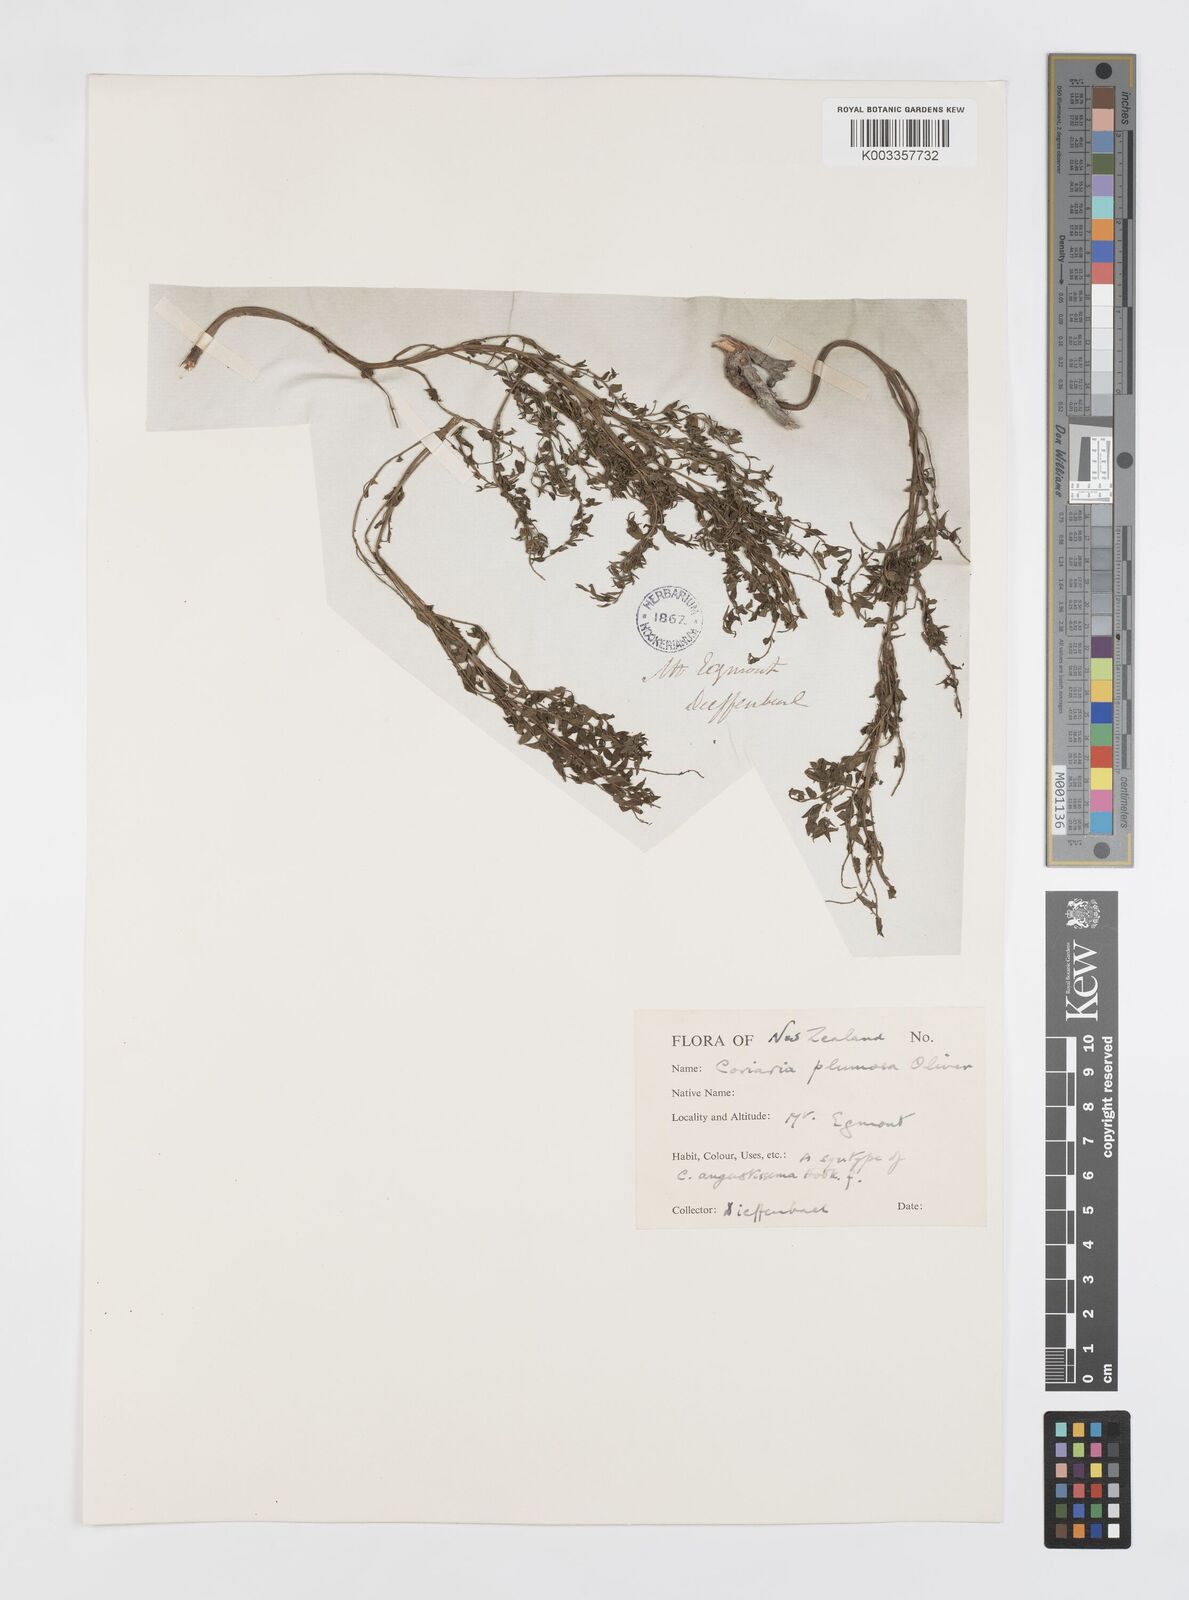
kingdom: Plantae
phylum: Tracheophyta
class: Magnoliopsida
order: Cucurbitales
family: Coriariaceae
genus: Coriaria
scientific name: Coriaria plumosa
